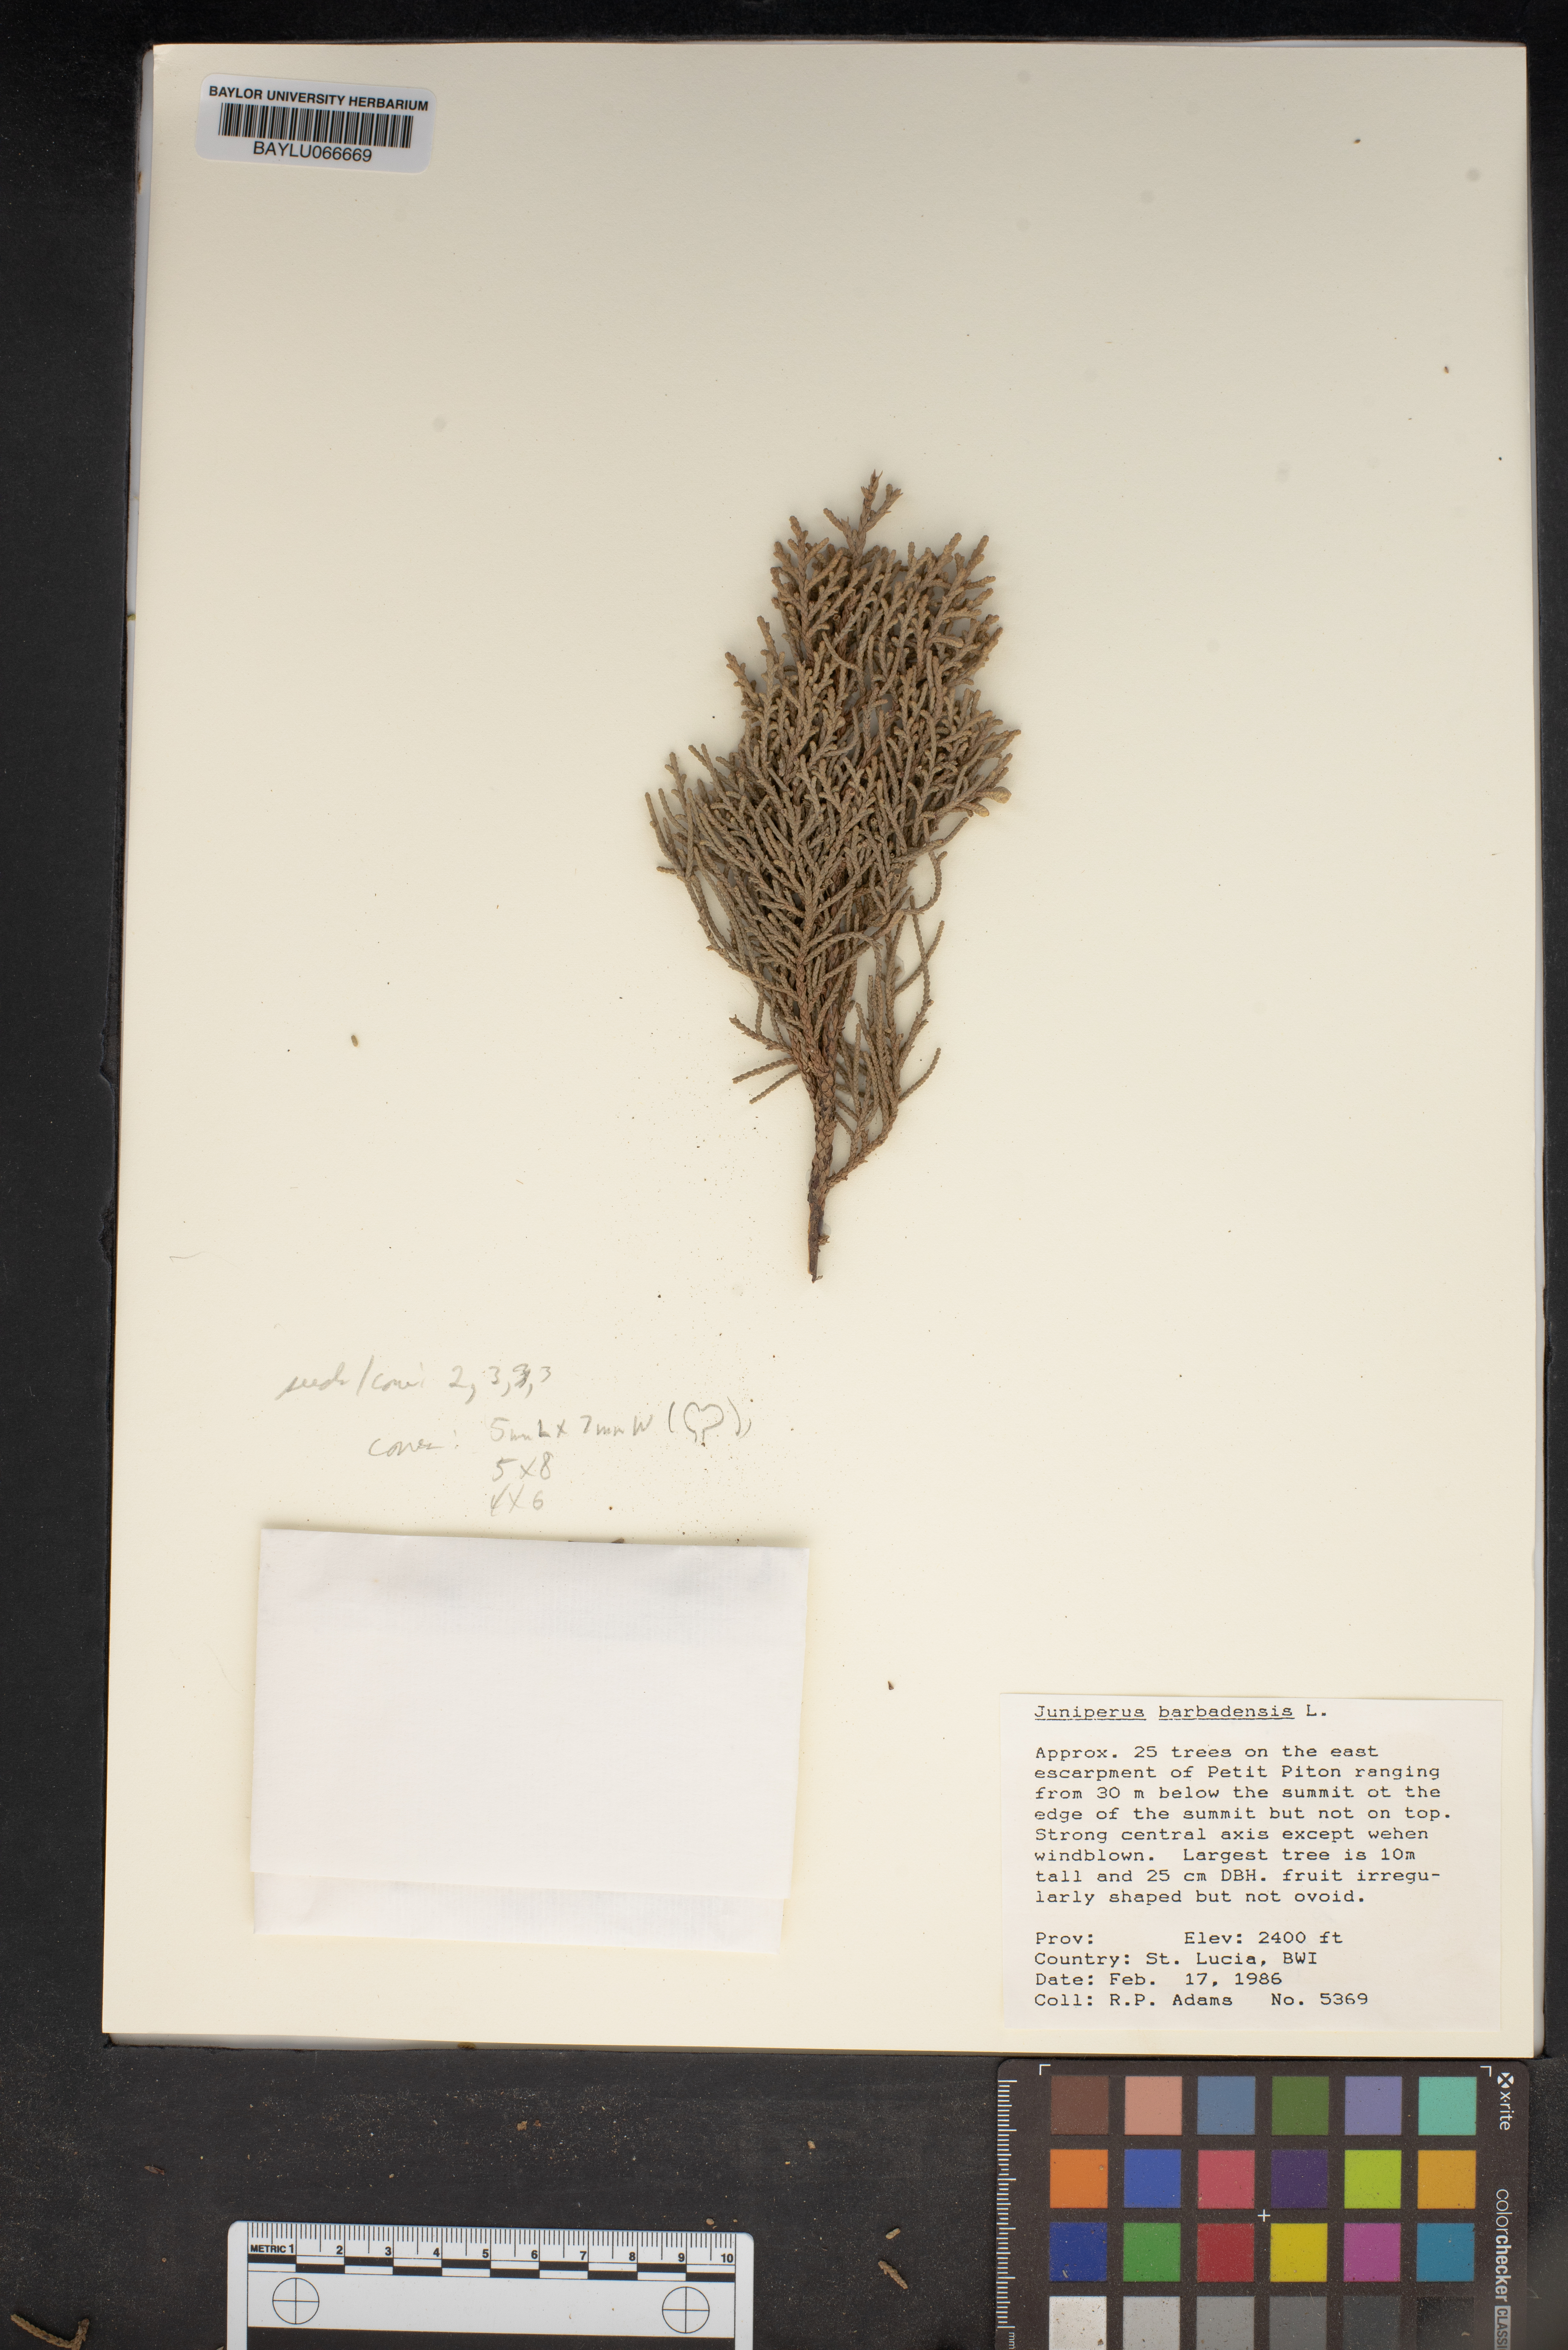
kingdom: Plantae
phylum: Tracheophyta
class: Pinopsida
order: Pinales
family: Cupressaceae
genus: Juniperus
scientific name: Juniperus barbadensis
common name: West indies juniper
